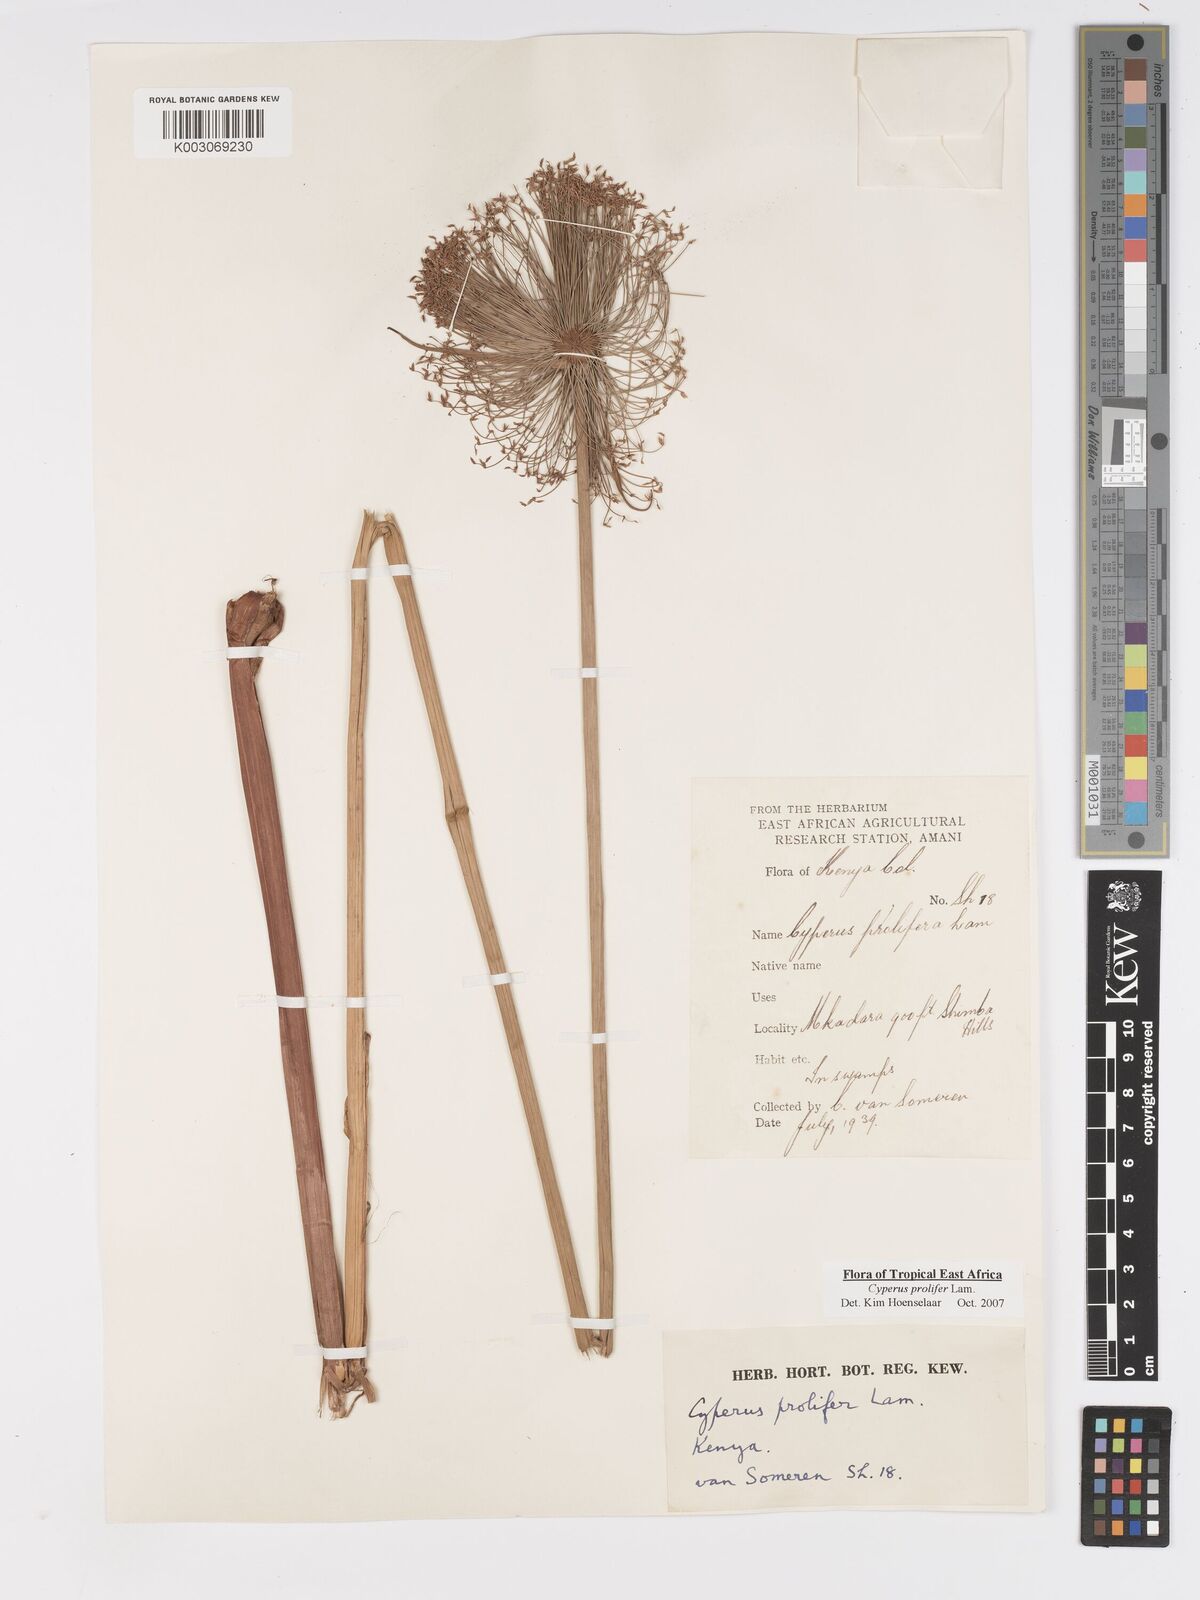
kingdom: Plantae
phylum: Tracheophyta
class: Liliopsida
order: Poales
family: Cyperaceae
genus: Cyperus
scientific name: Cyperus prolifer
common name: Miniature flatsedge
